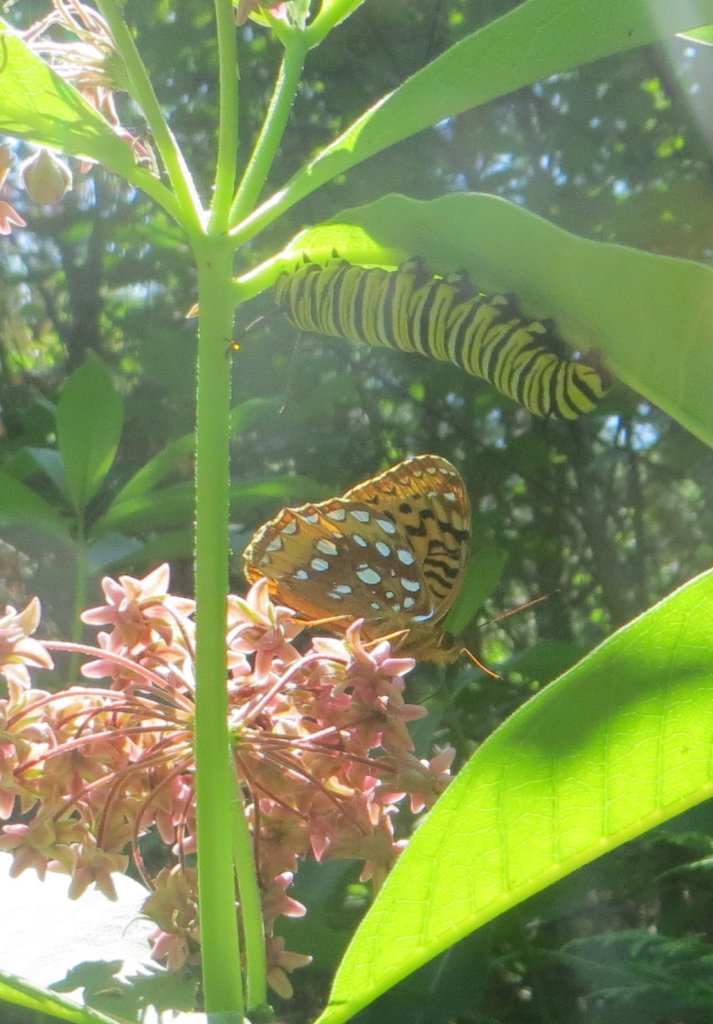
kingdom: Animalia
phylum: Arthropoda
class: Insecta
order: Lepidoptera
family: Nymphalidae
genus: Speyeria
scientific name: Speyeria cybele
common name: Great Spangled Fritillary
